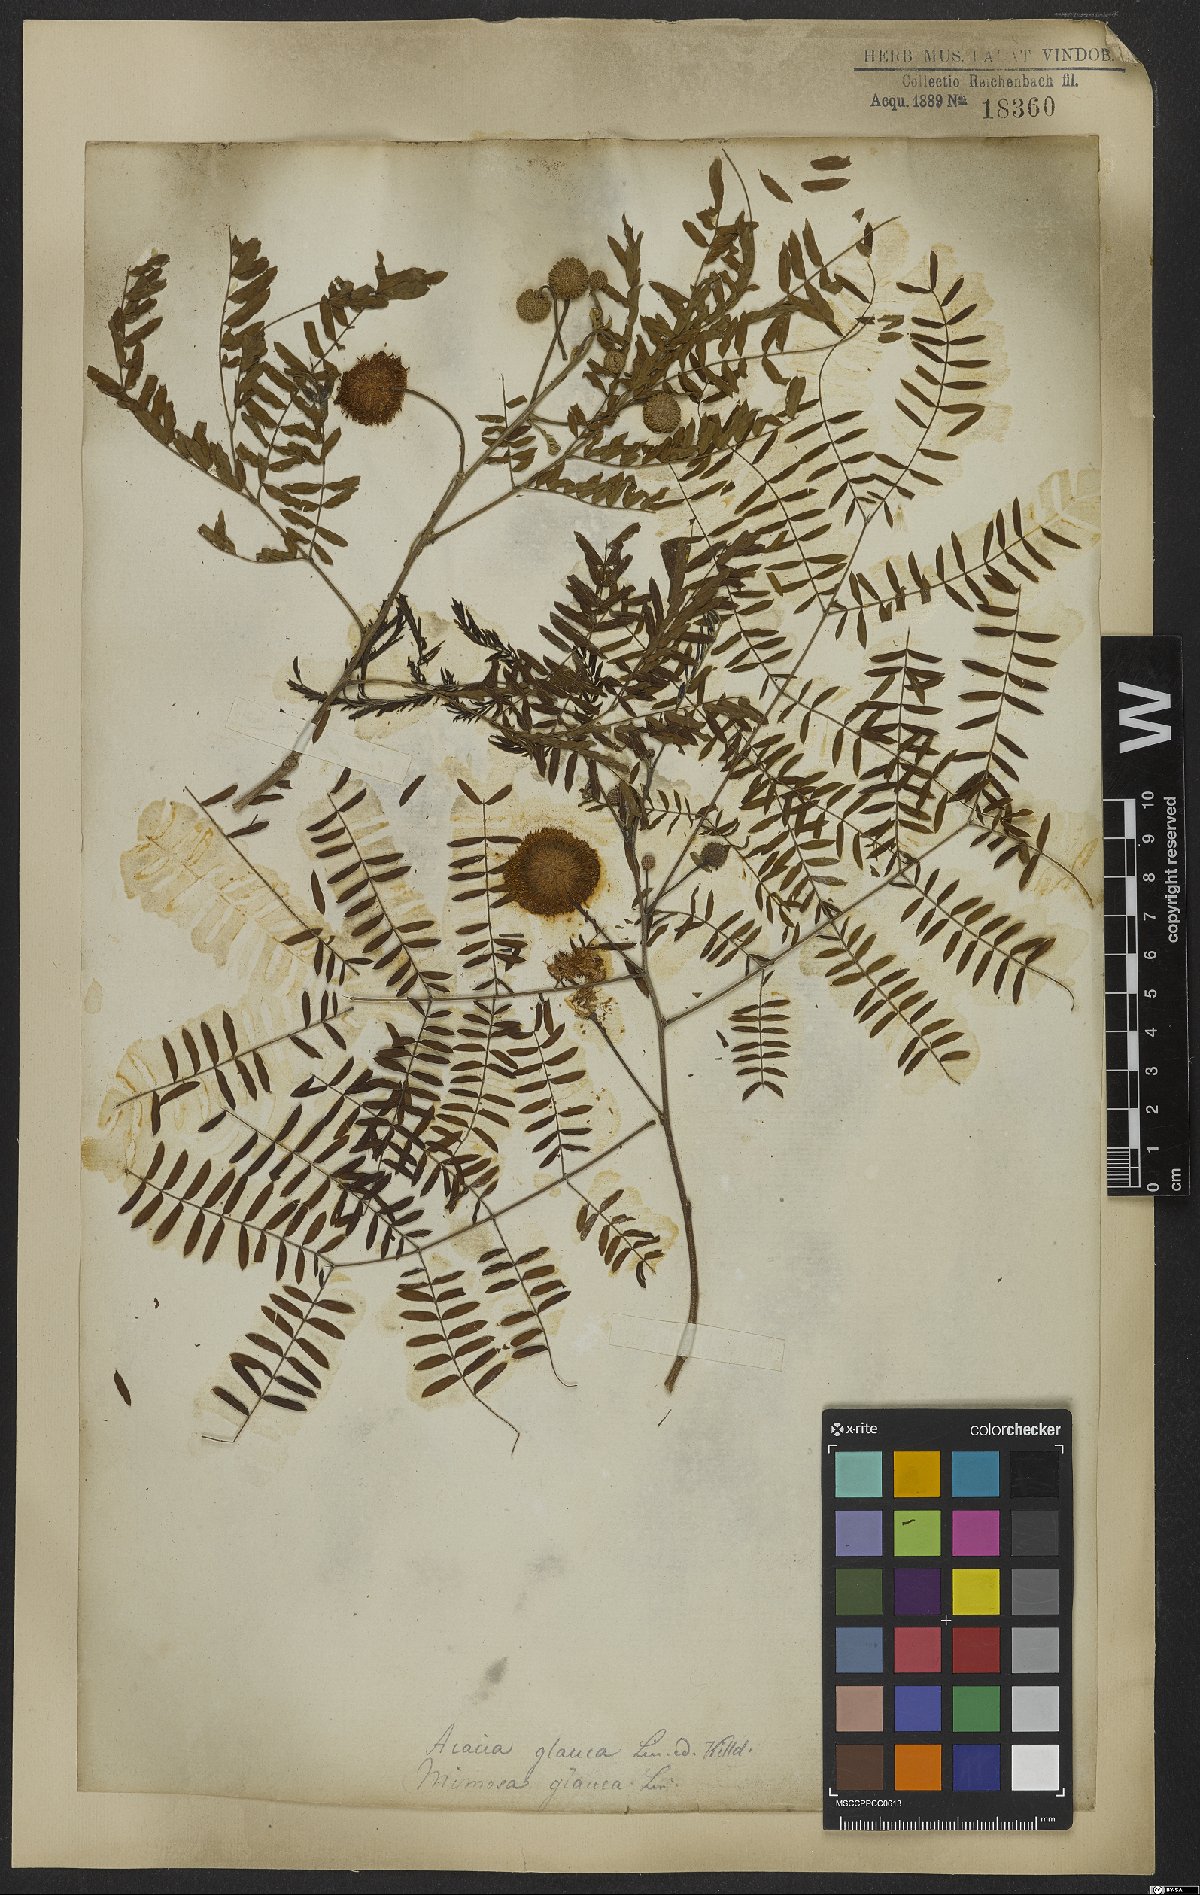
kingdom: Plantae
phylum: Tracheophyta
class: Magnoliopsida
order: Fabales
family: Fabaceae
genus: Acaciella
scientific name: Acaciella glauca
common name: Redwood
